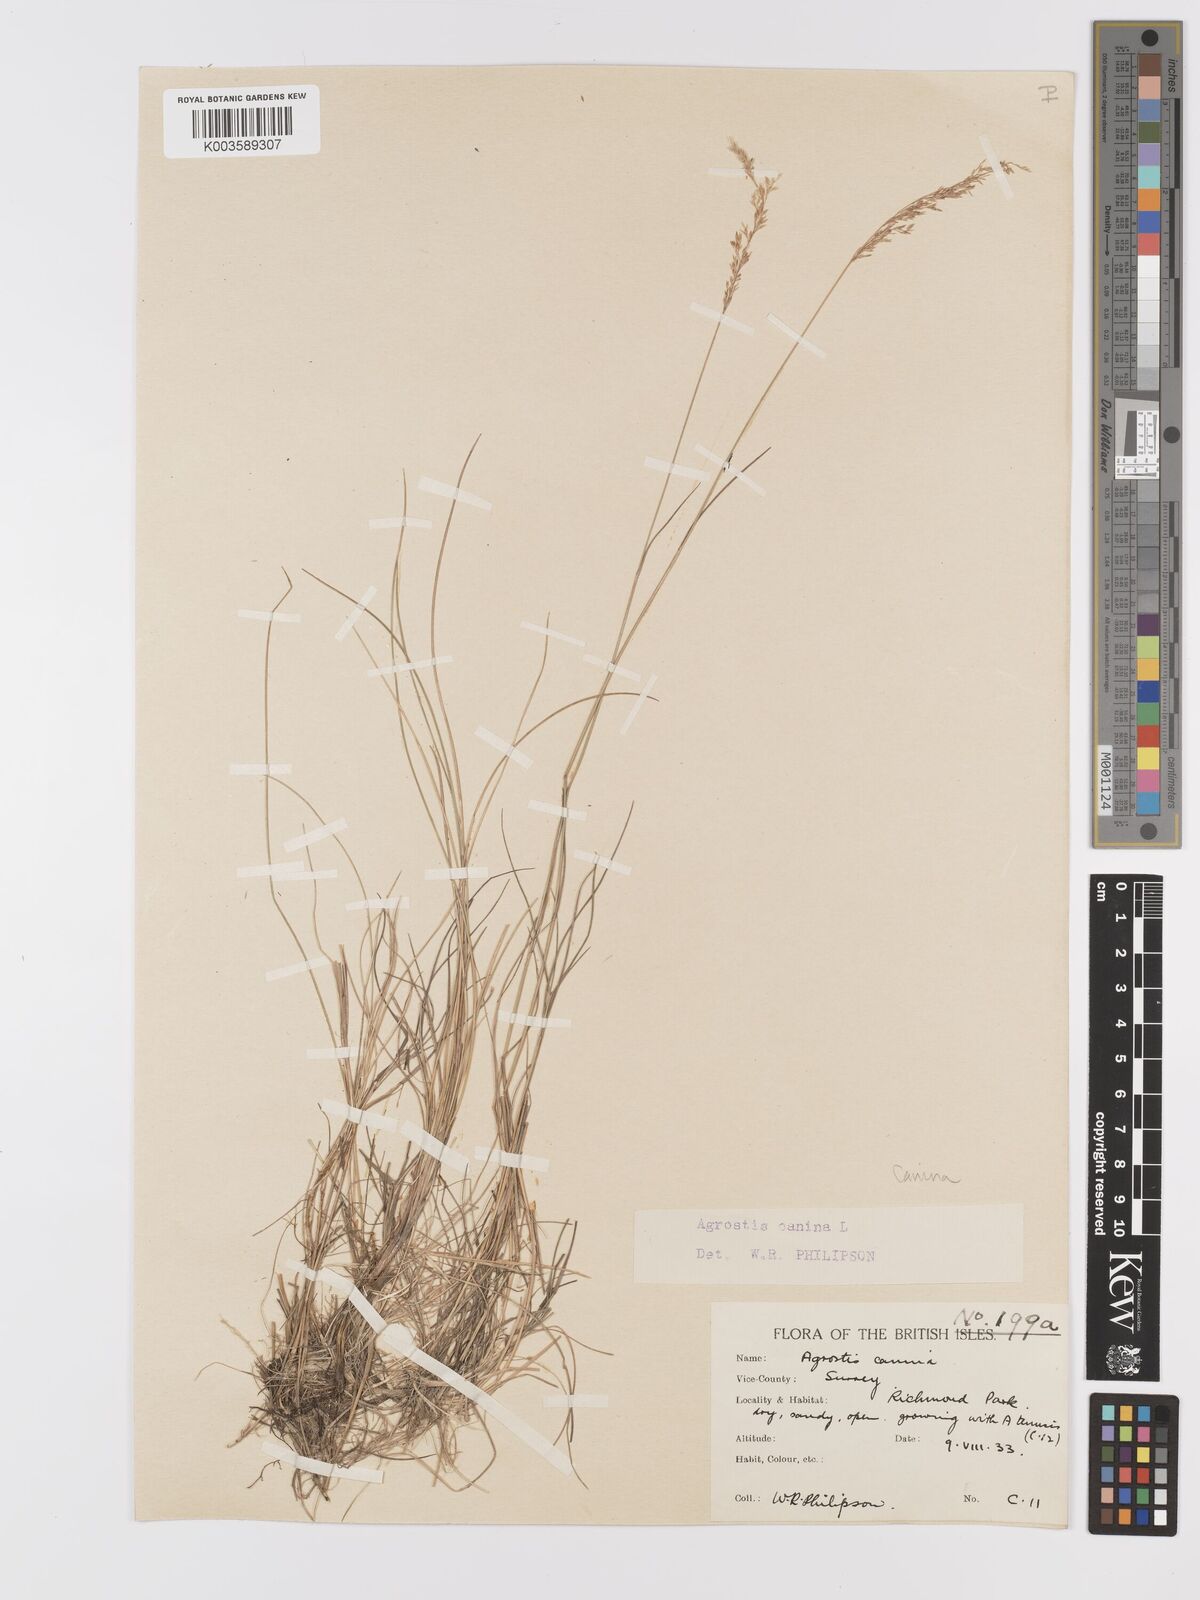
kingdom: Plantae
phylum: Tracheophyta
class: Liliopsida
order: Poales
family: Poaceae
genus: Agrostis
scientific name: Agrostis canina
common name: Velvet bent
